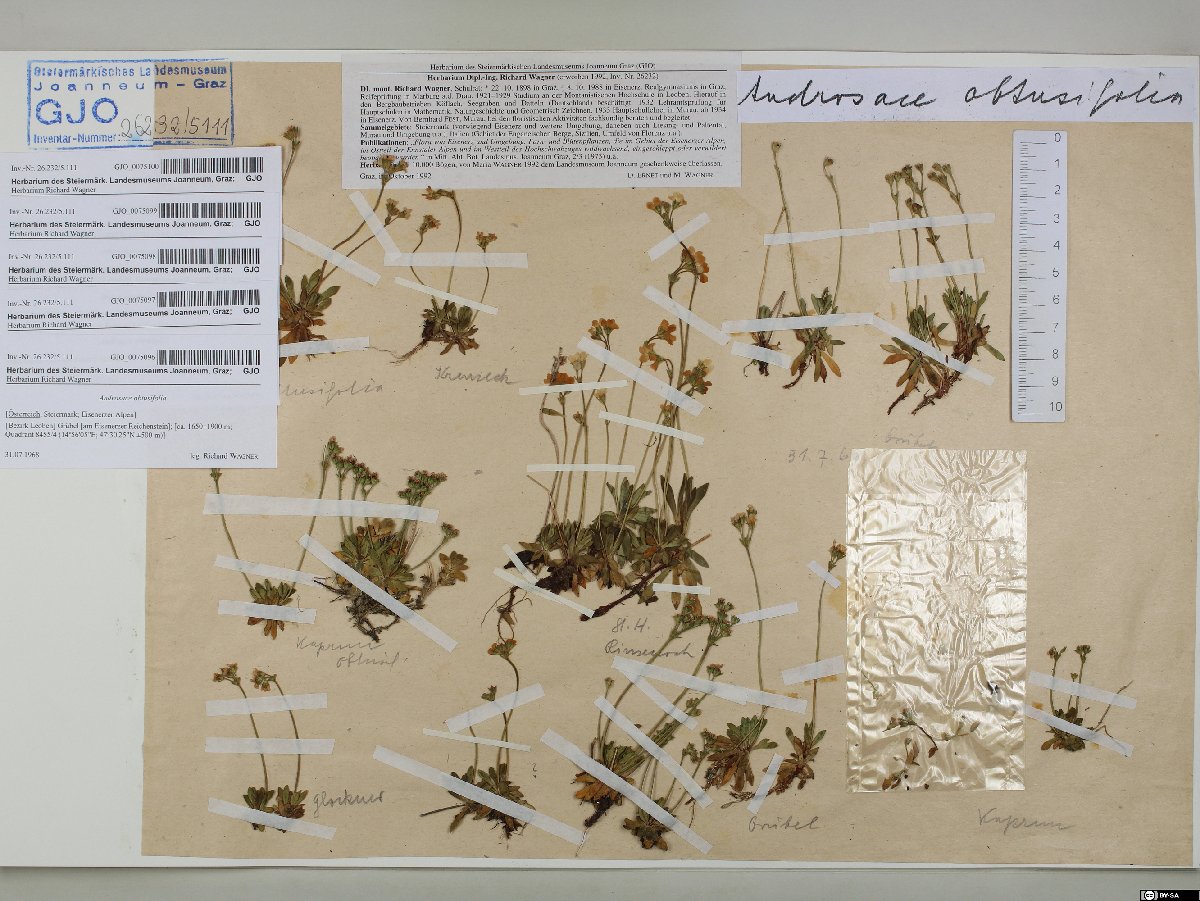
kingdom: Plantae
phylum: Tracheophyta
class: Magnoliopsida
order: Ericales
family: Primulaceae
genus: Androsace
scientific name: Androsace obtusifolia
